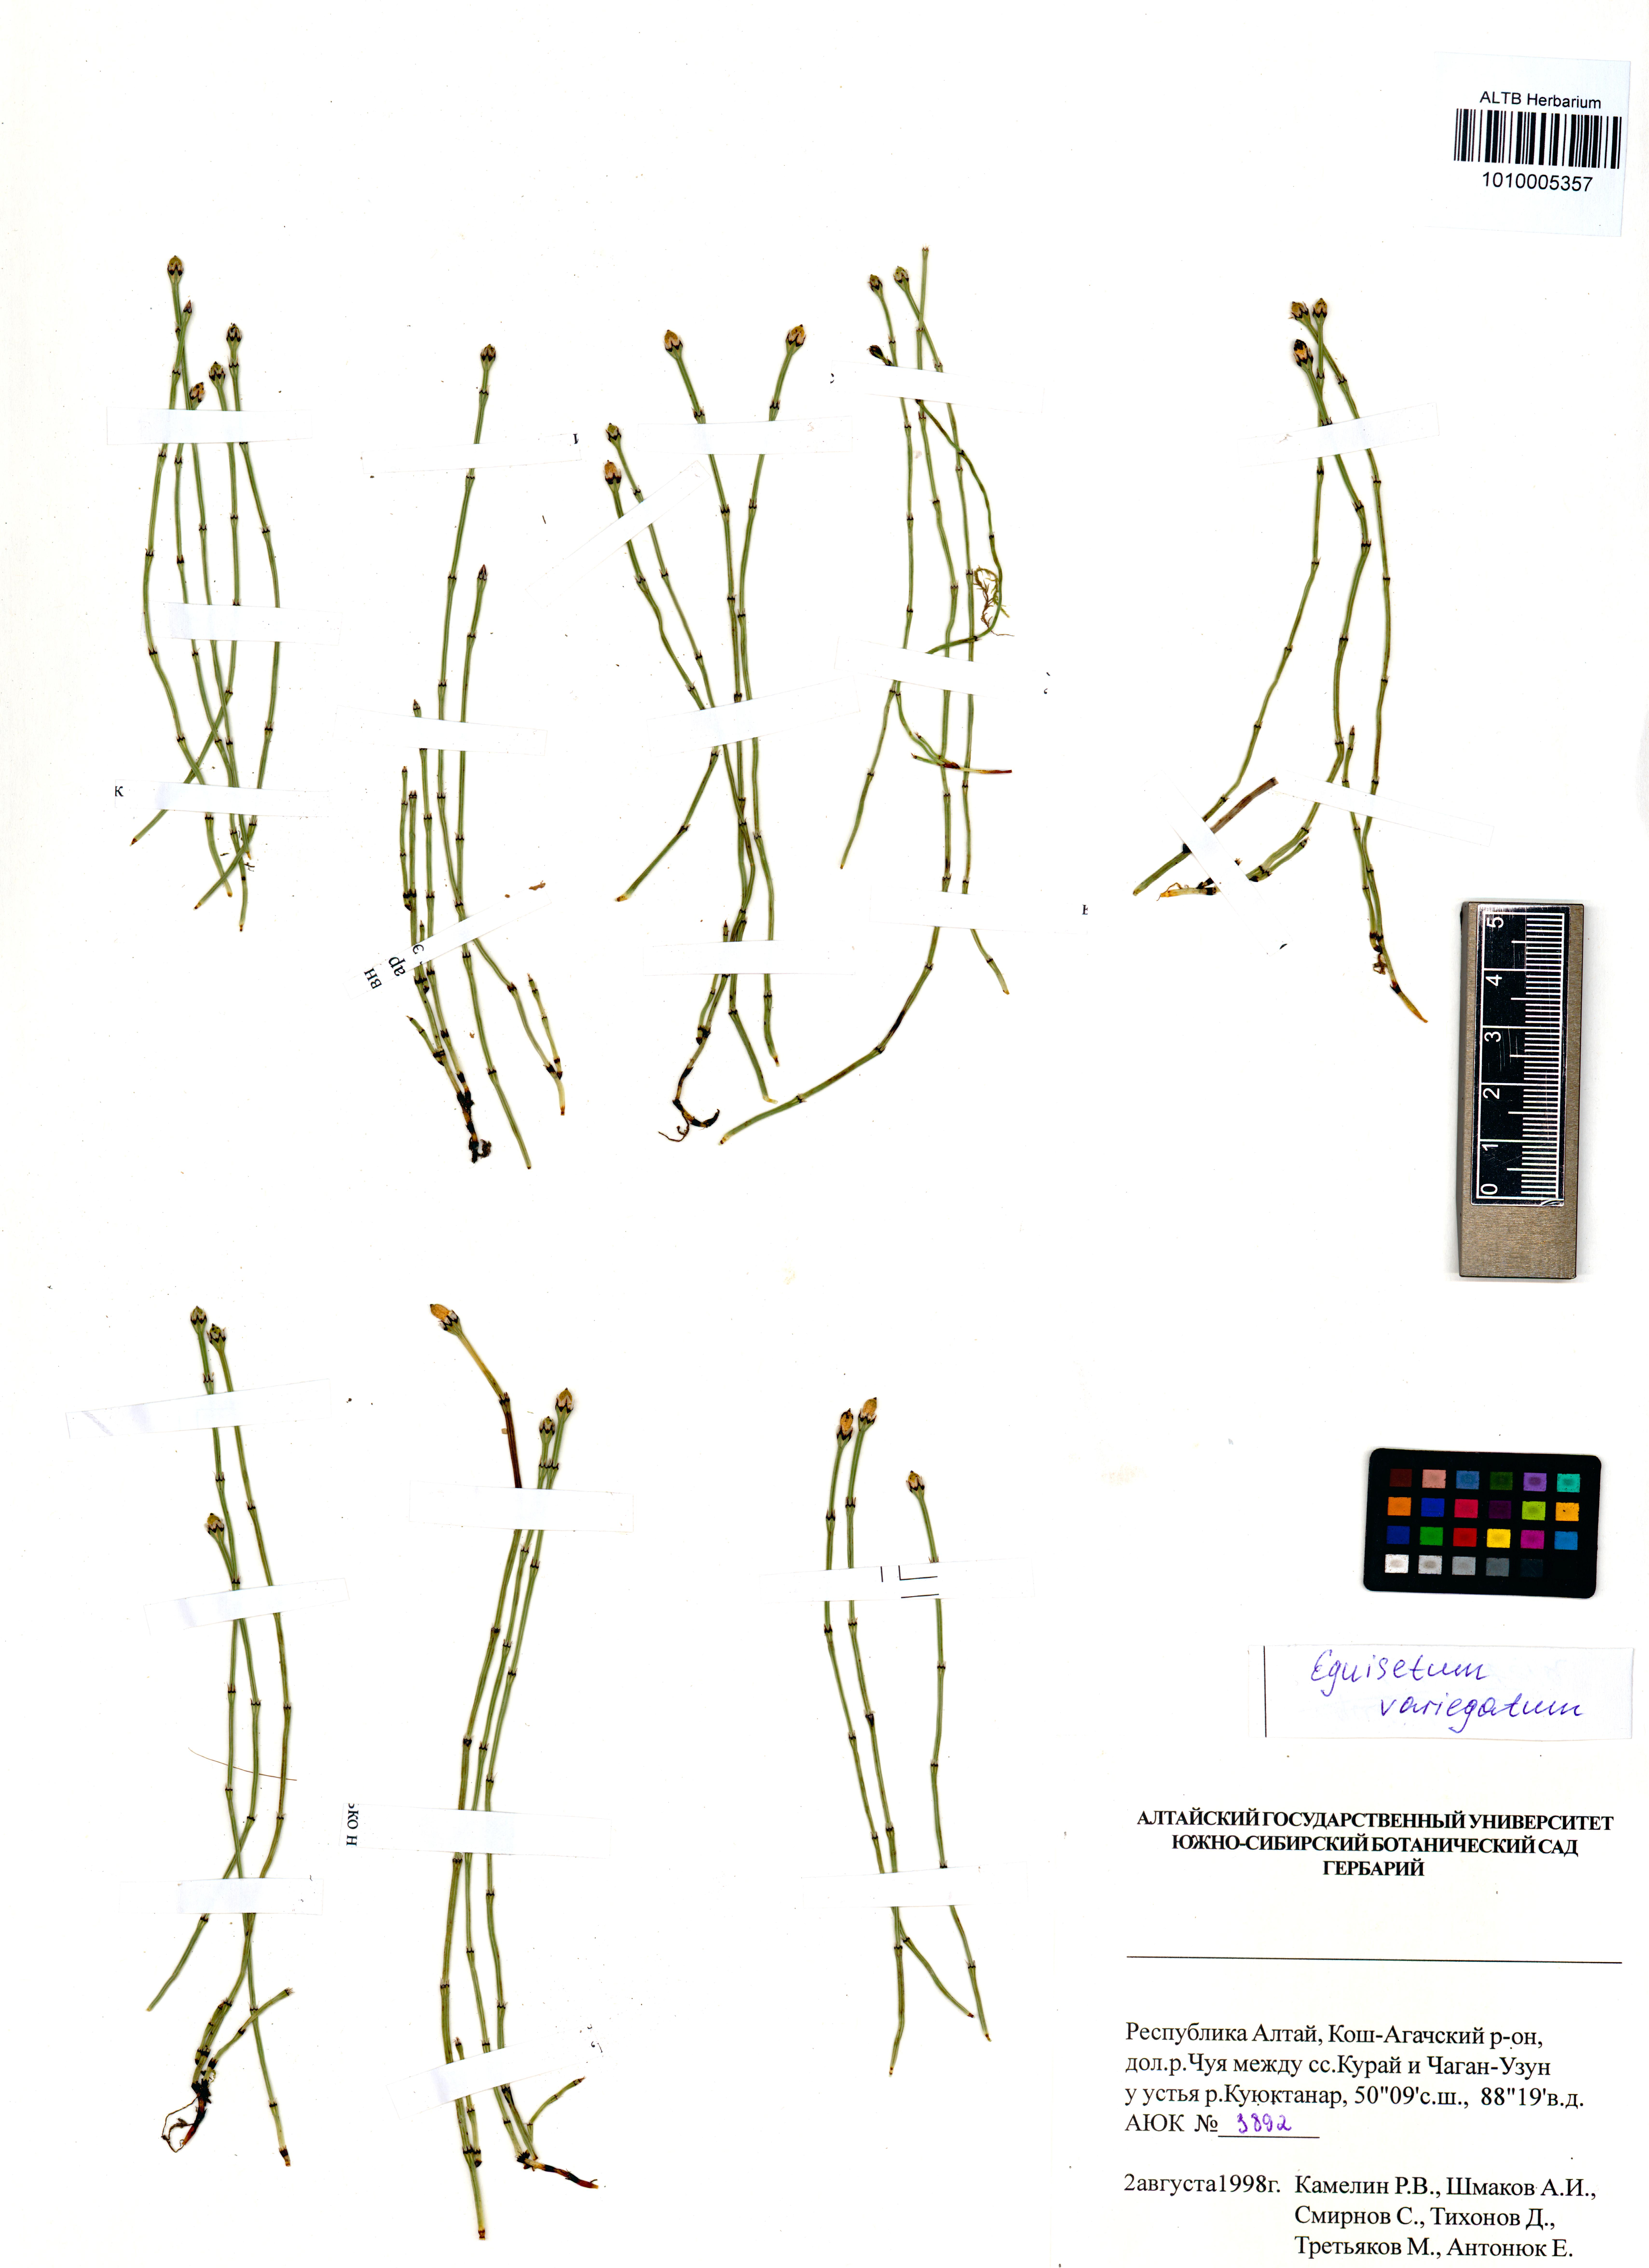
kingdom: Plantae
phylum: Tracheophyta
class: Polypodiopsida
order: Equisetales
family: Equisetaceae
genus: Equisetum
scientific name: Equisetum variegatum
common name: Variegated horsetail
